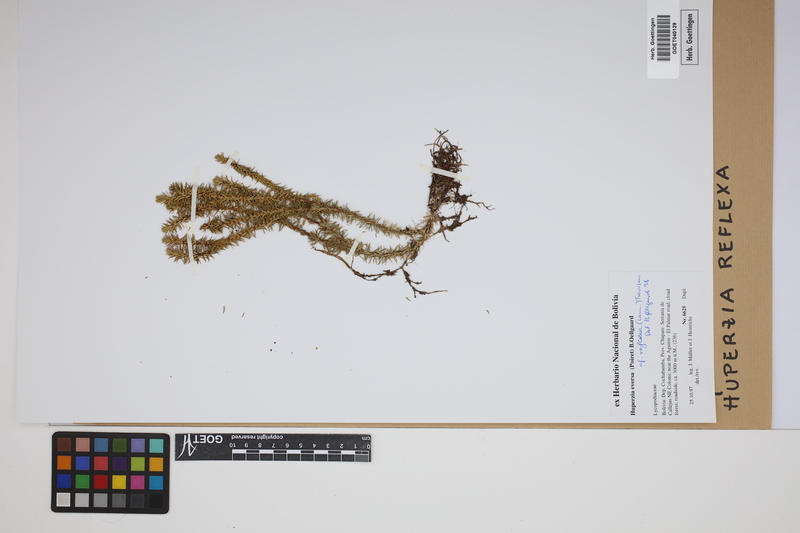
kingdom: Plantae
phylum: Tracheophyta
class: Lycopodiopsida
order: Lycopodiales
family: Lycopodiaceae
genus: Phlegmariurus
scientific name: Phlegmariurus reflexus
